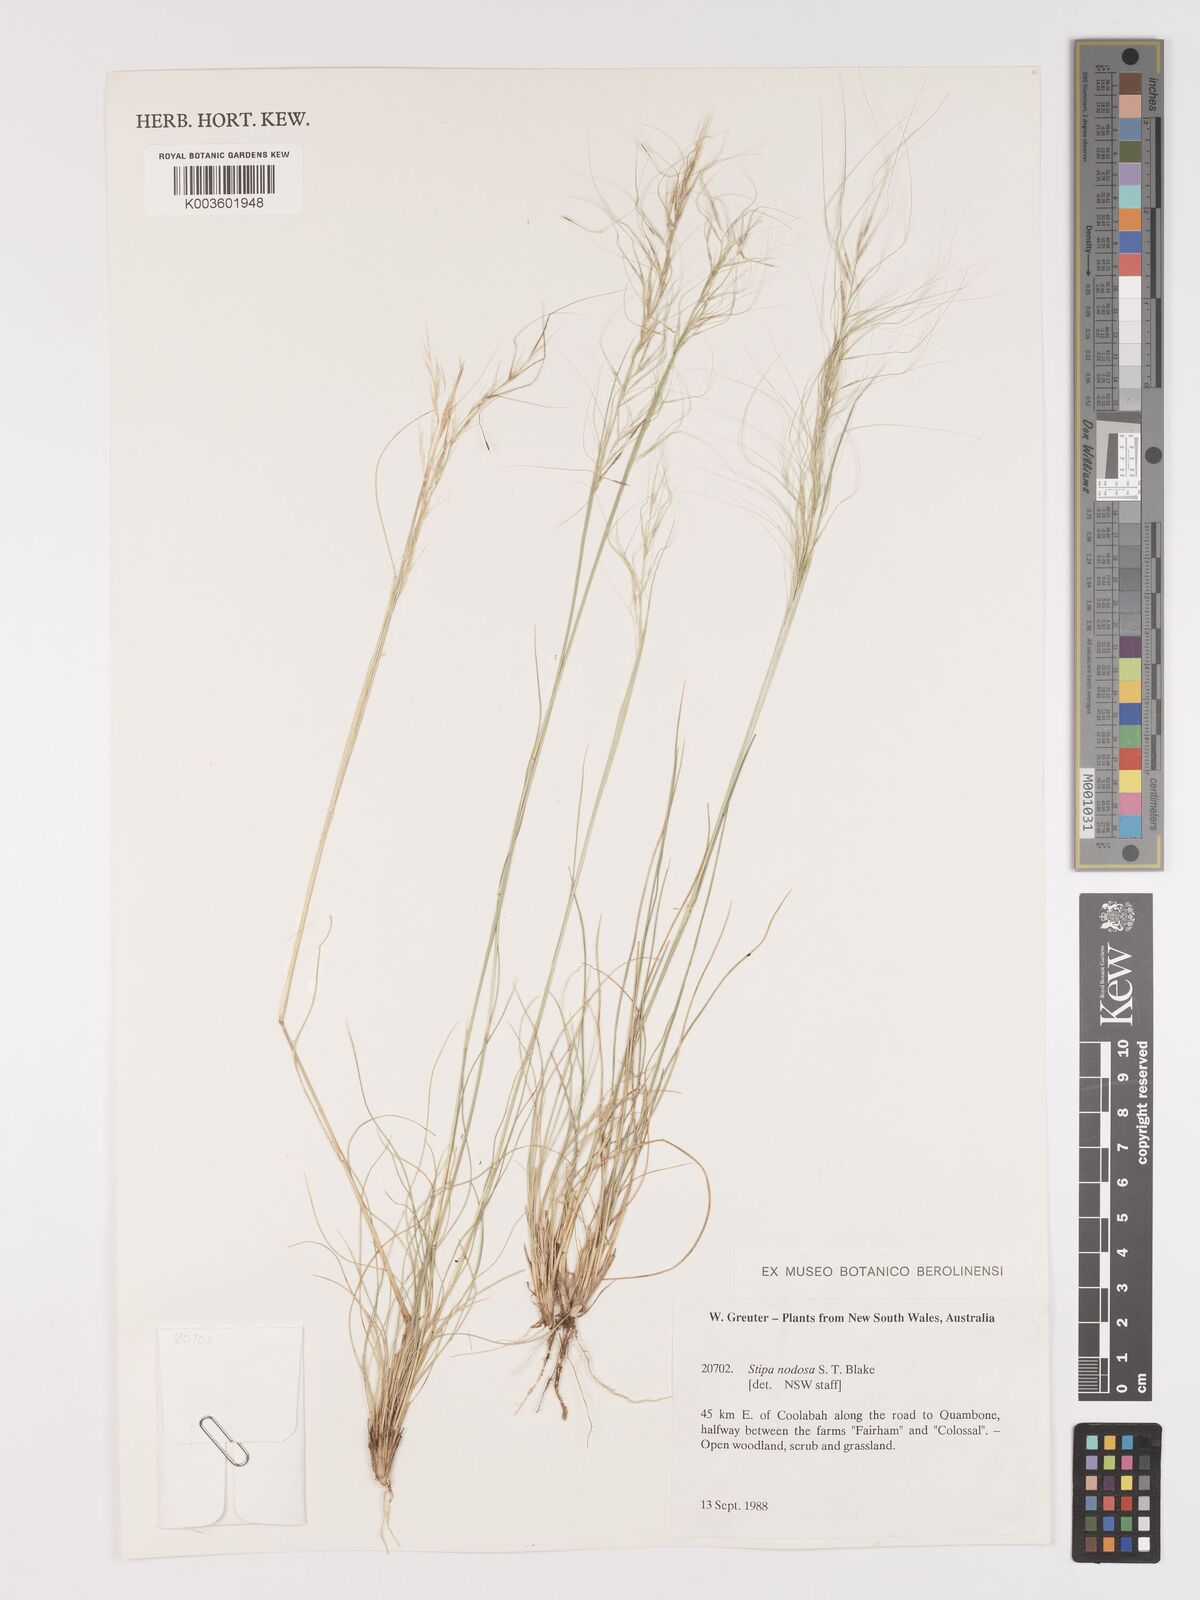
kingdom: Plantae
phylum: Tracheophyta
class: Liliopsida
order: Poales
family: Poaceae
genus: Austrostipa
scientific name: Austrostipa nodosa
